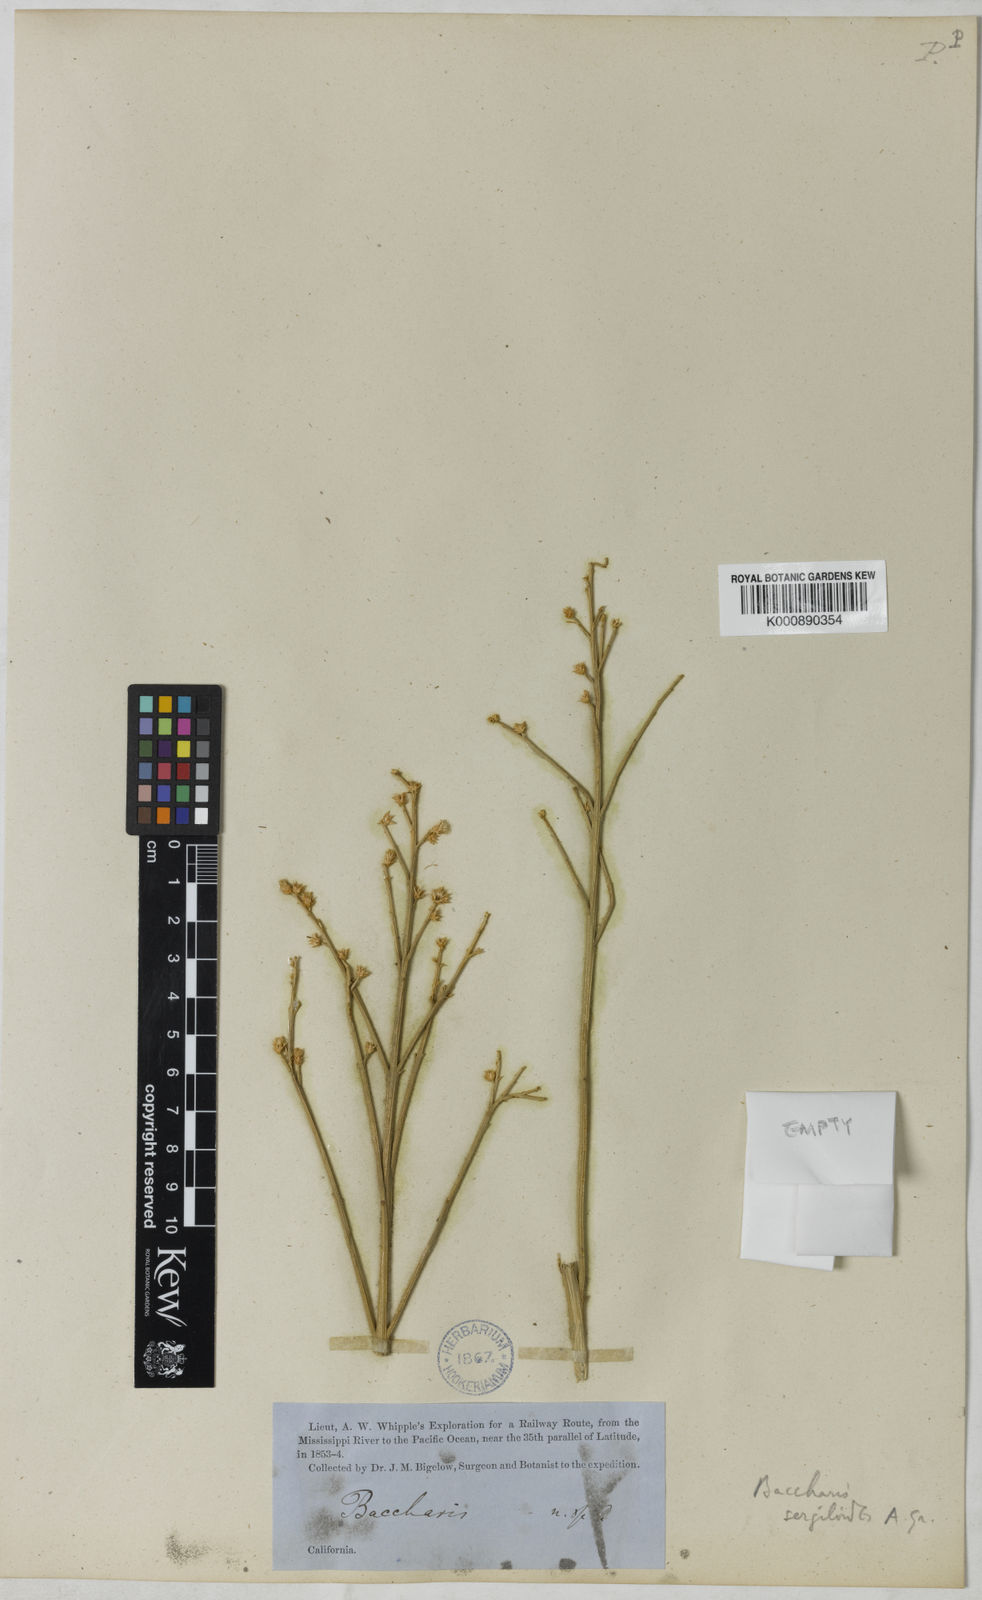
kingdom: Plantae
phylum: Tracheophyta
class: Magnoliopsida
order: Asterales
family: Asteraceae
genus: Baccharis
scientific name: Baccharis sergiloides
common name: Desert baccharis
